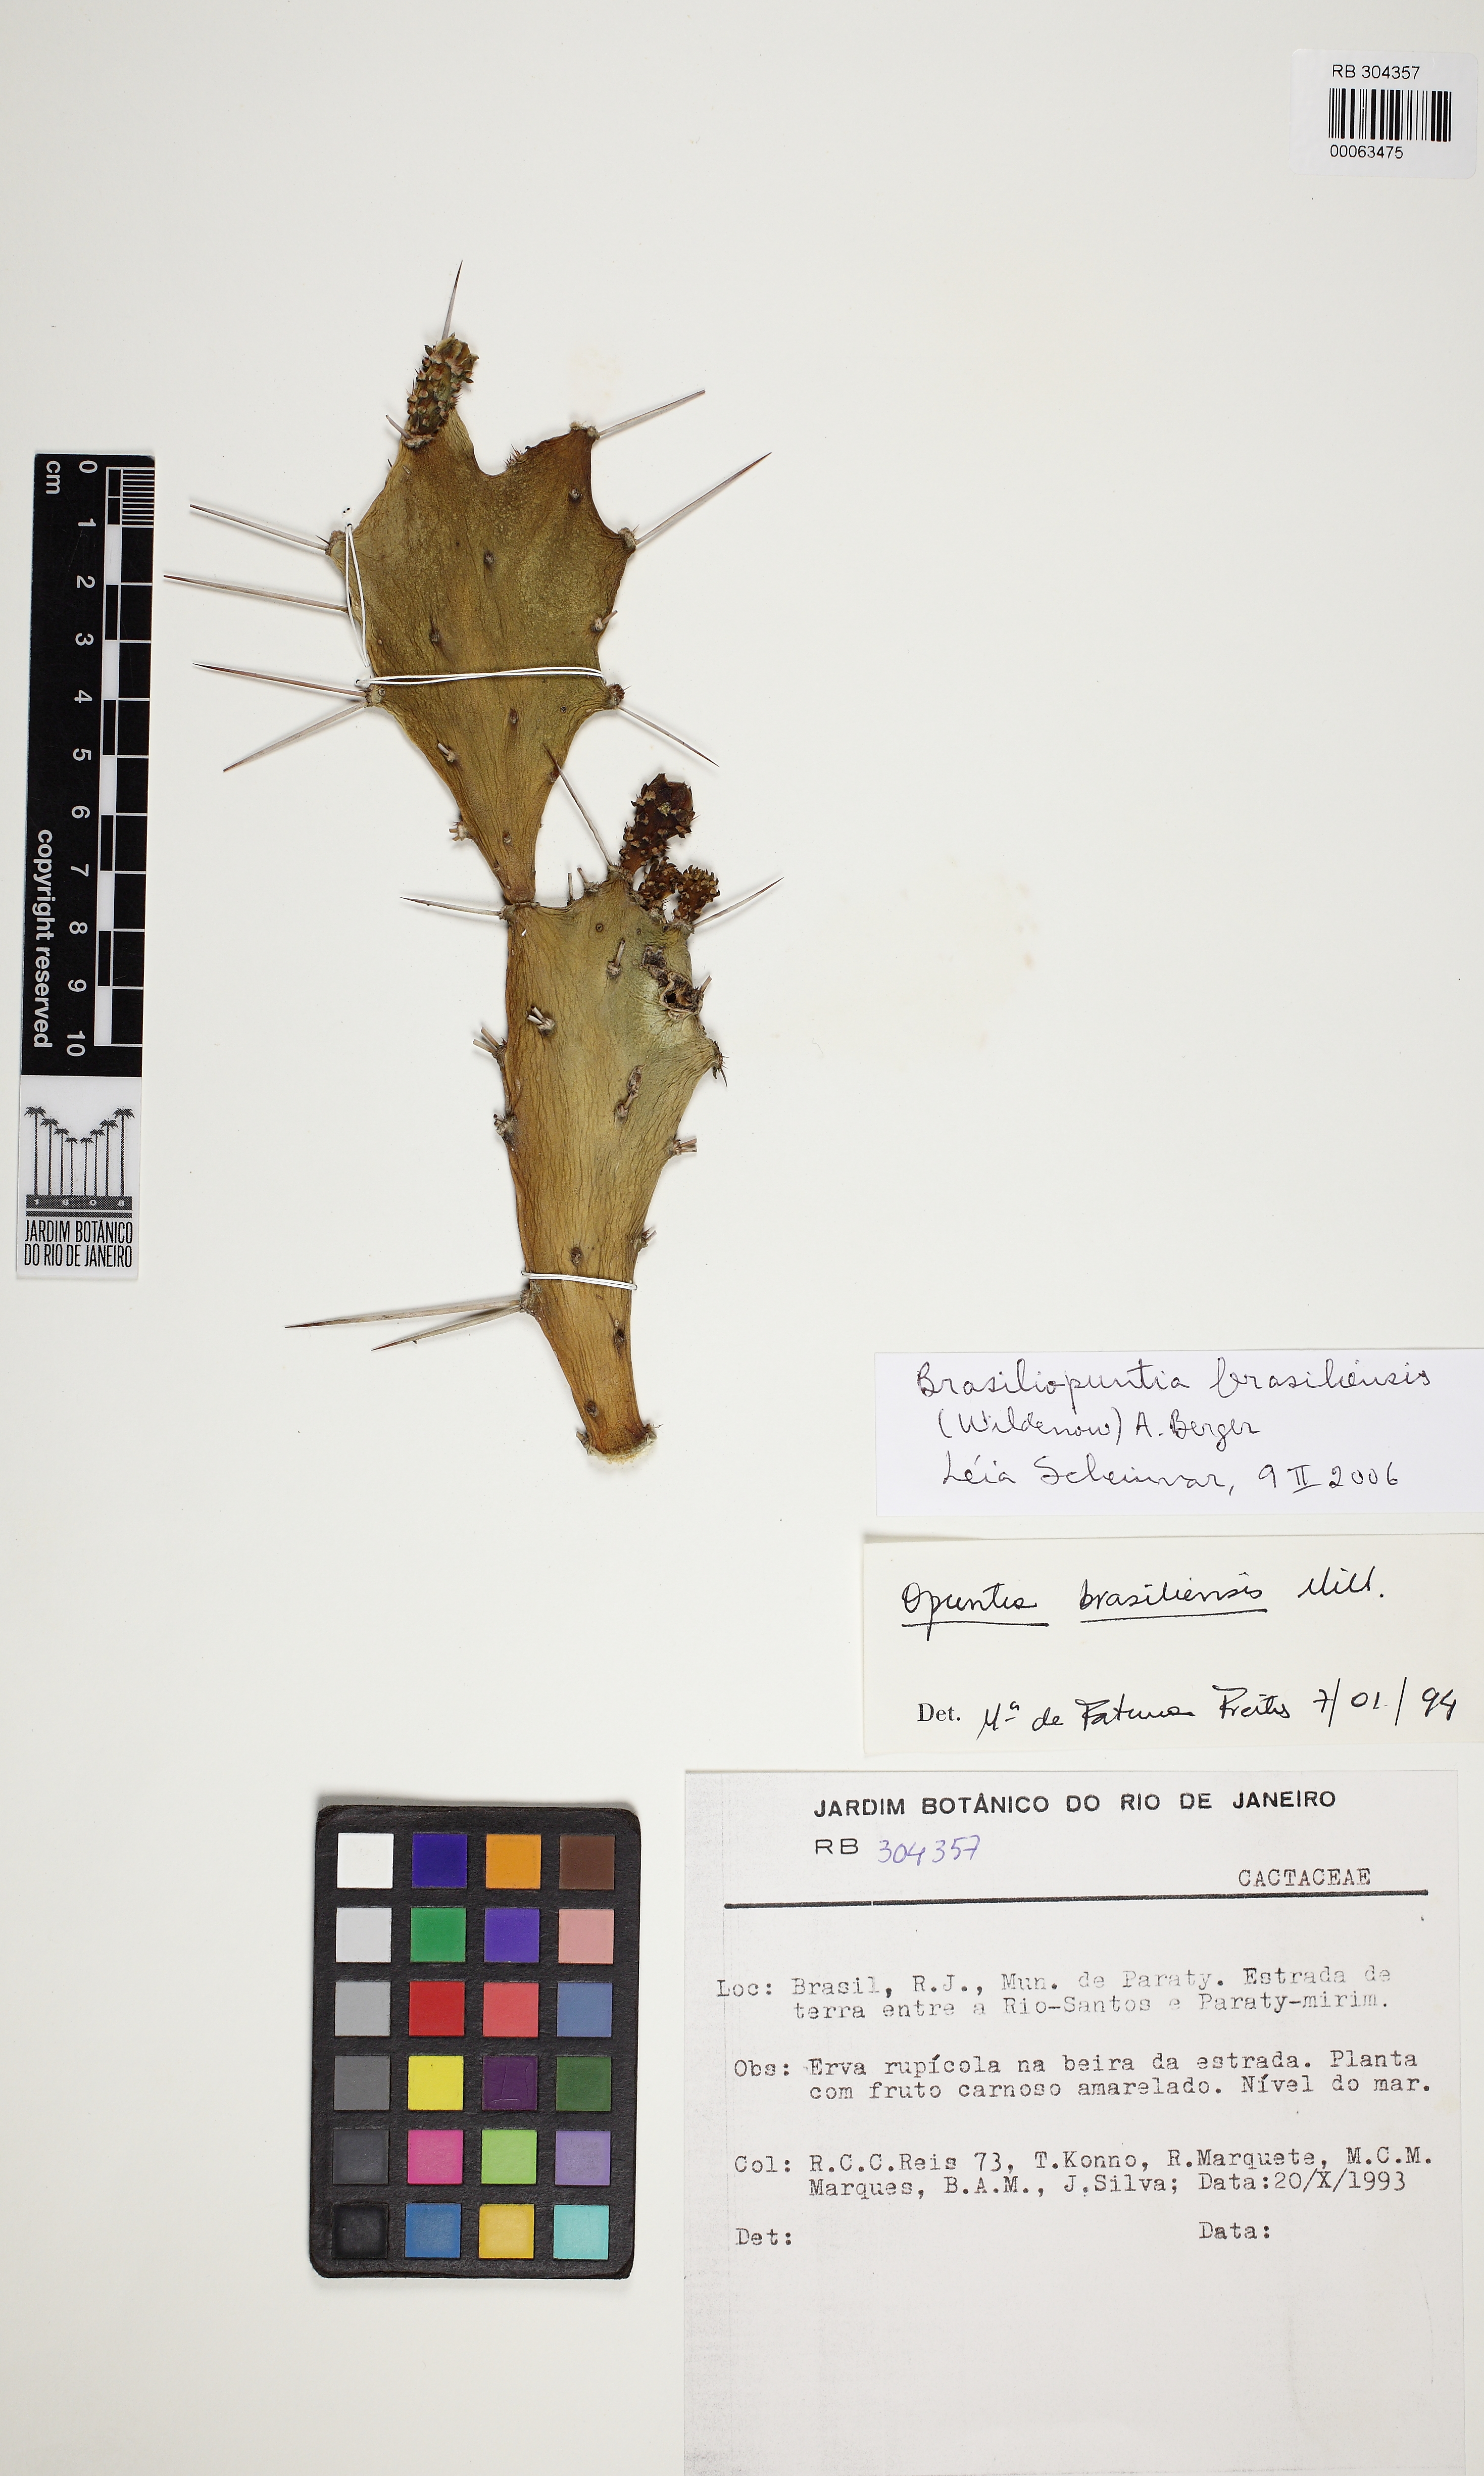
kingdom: Plantae
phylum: Tracheophyta
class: Magnoliopsida
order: Caryophyllales
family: Cactaceae
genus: Brasiliopuntia
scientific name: Brasiliopuntia brasiliensis
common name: Brazilian pricklypear
